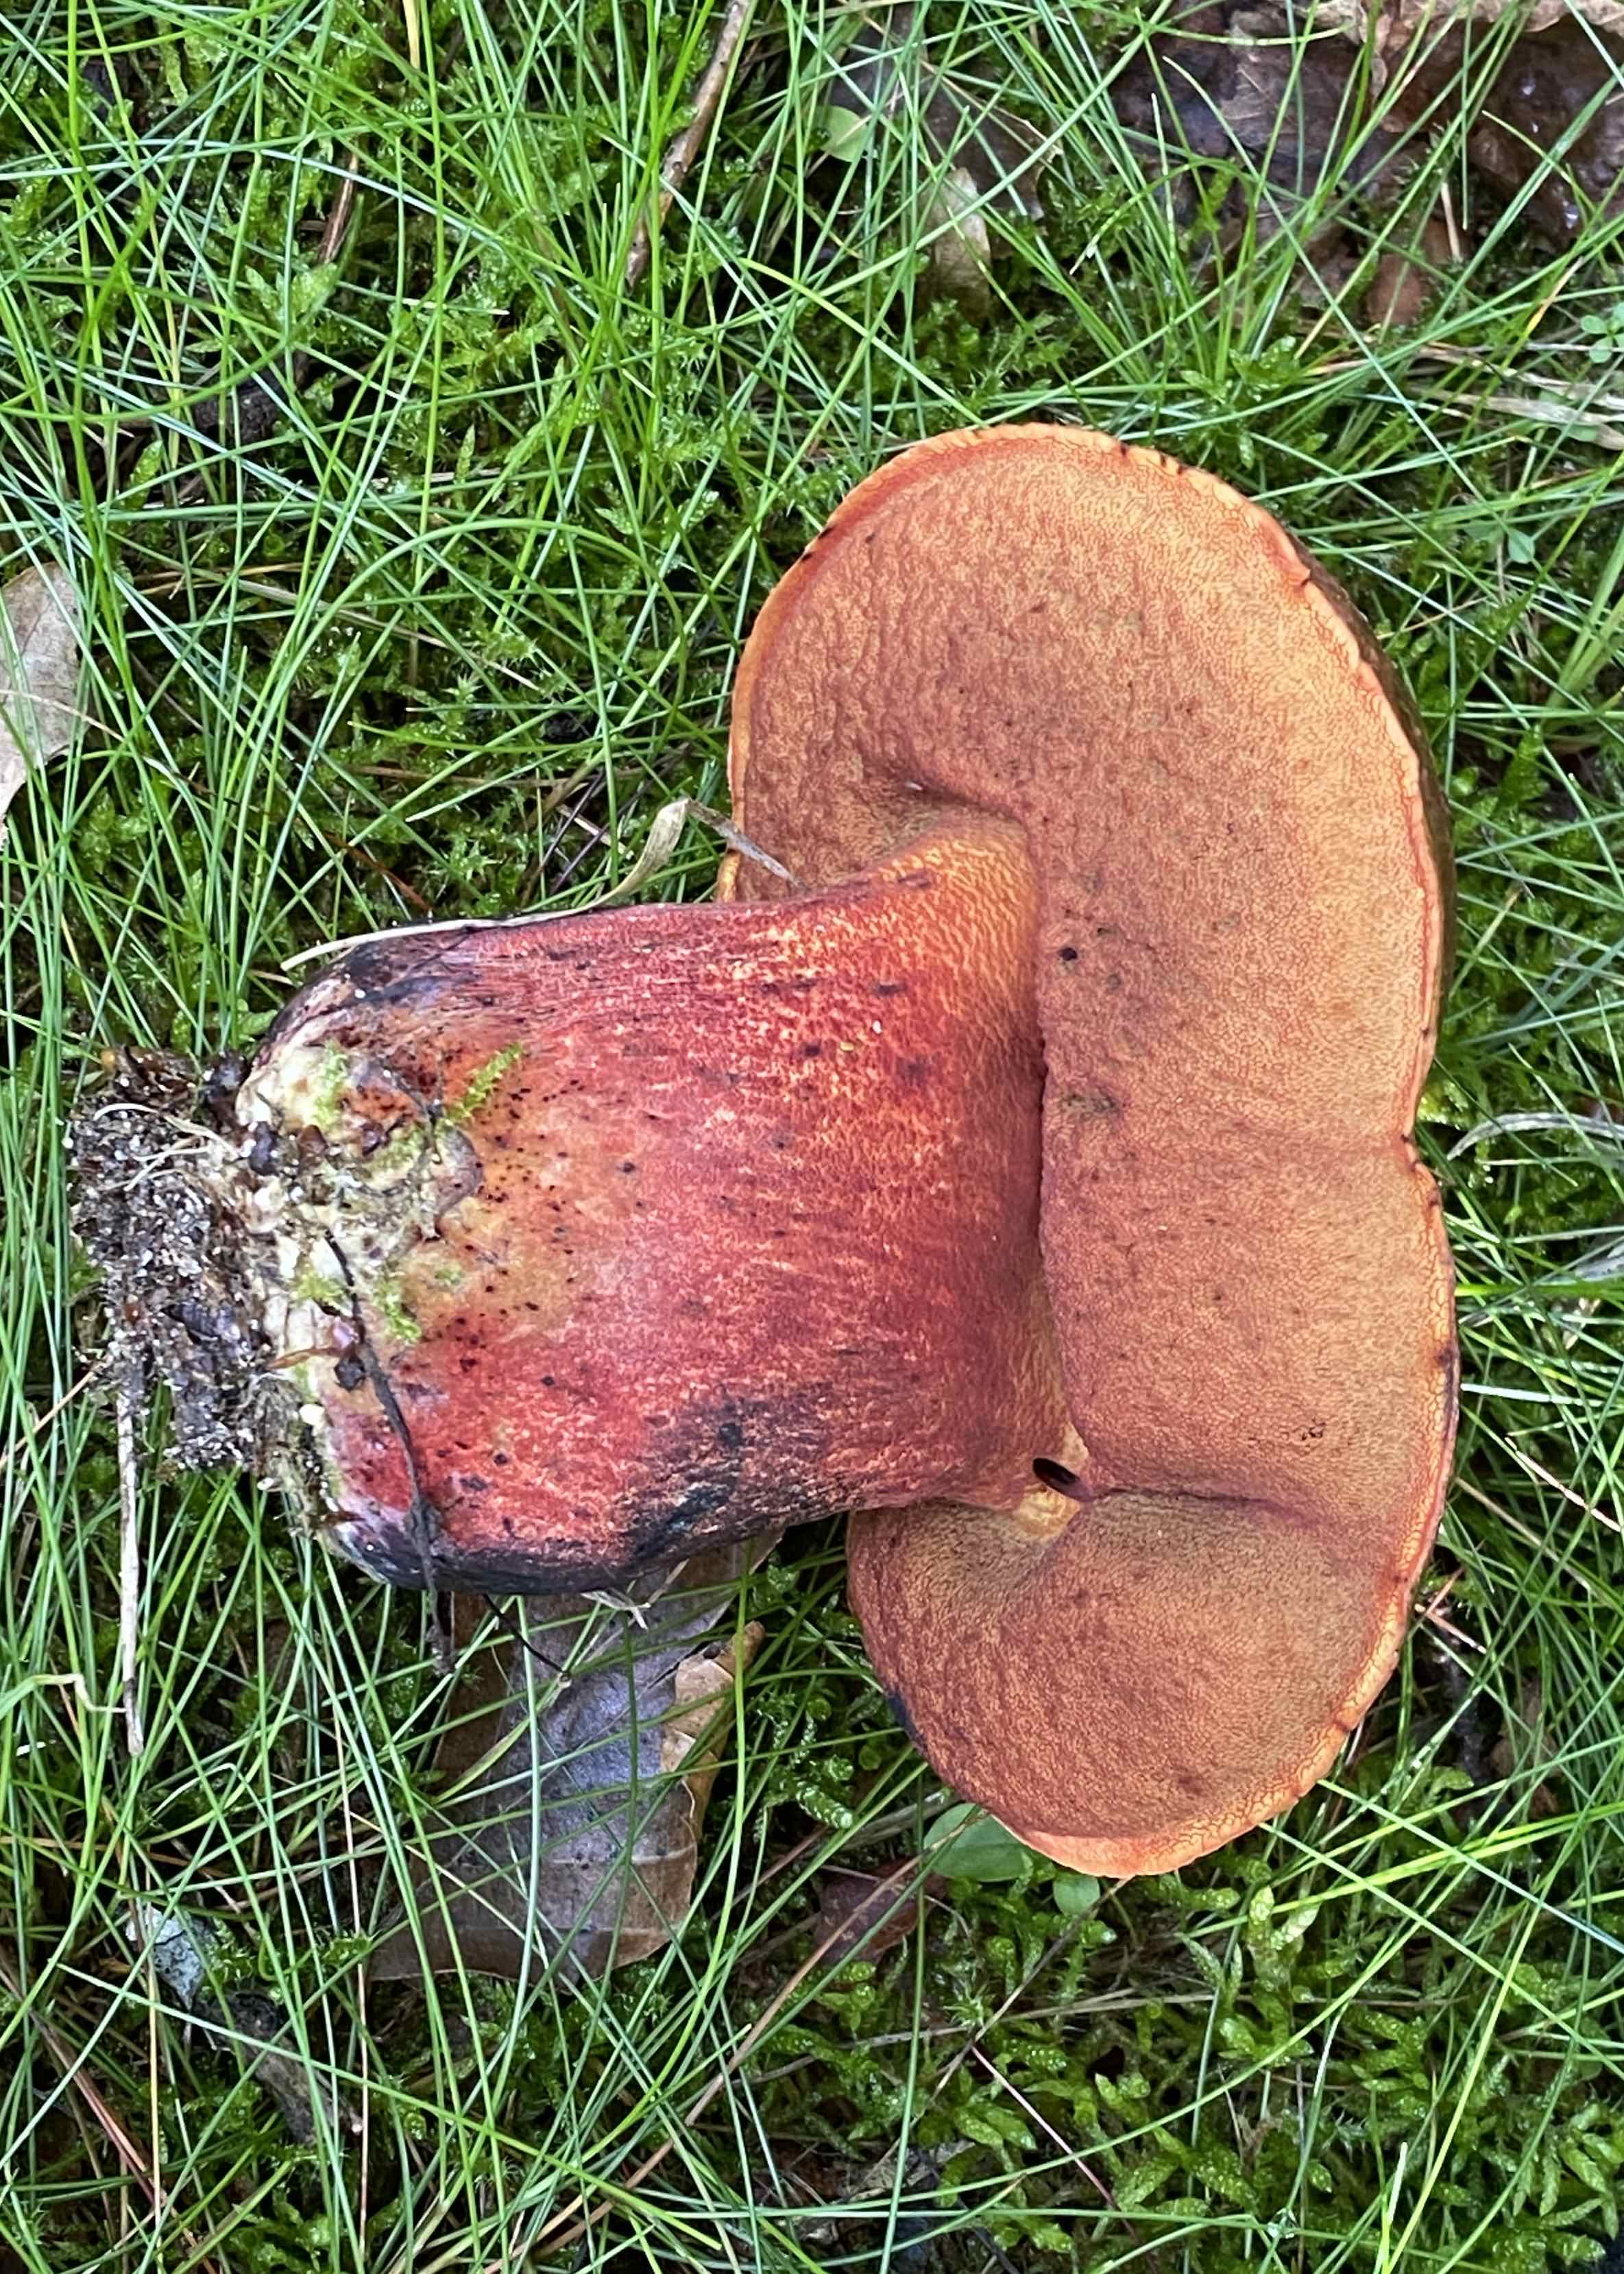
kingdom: Fungi
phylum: Basidiomycota
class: Agaricomycetes
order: Boletales
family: Boletaceae
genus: Neoboletus
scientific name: Neoboletus erythropus
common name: punktstokket indigorørhat
